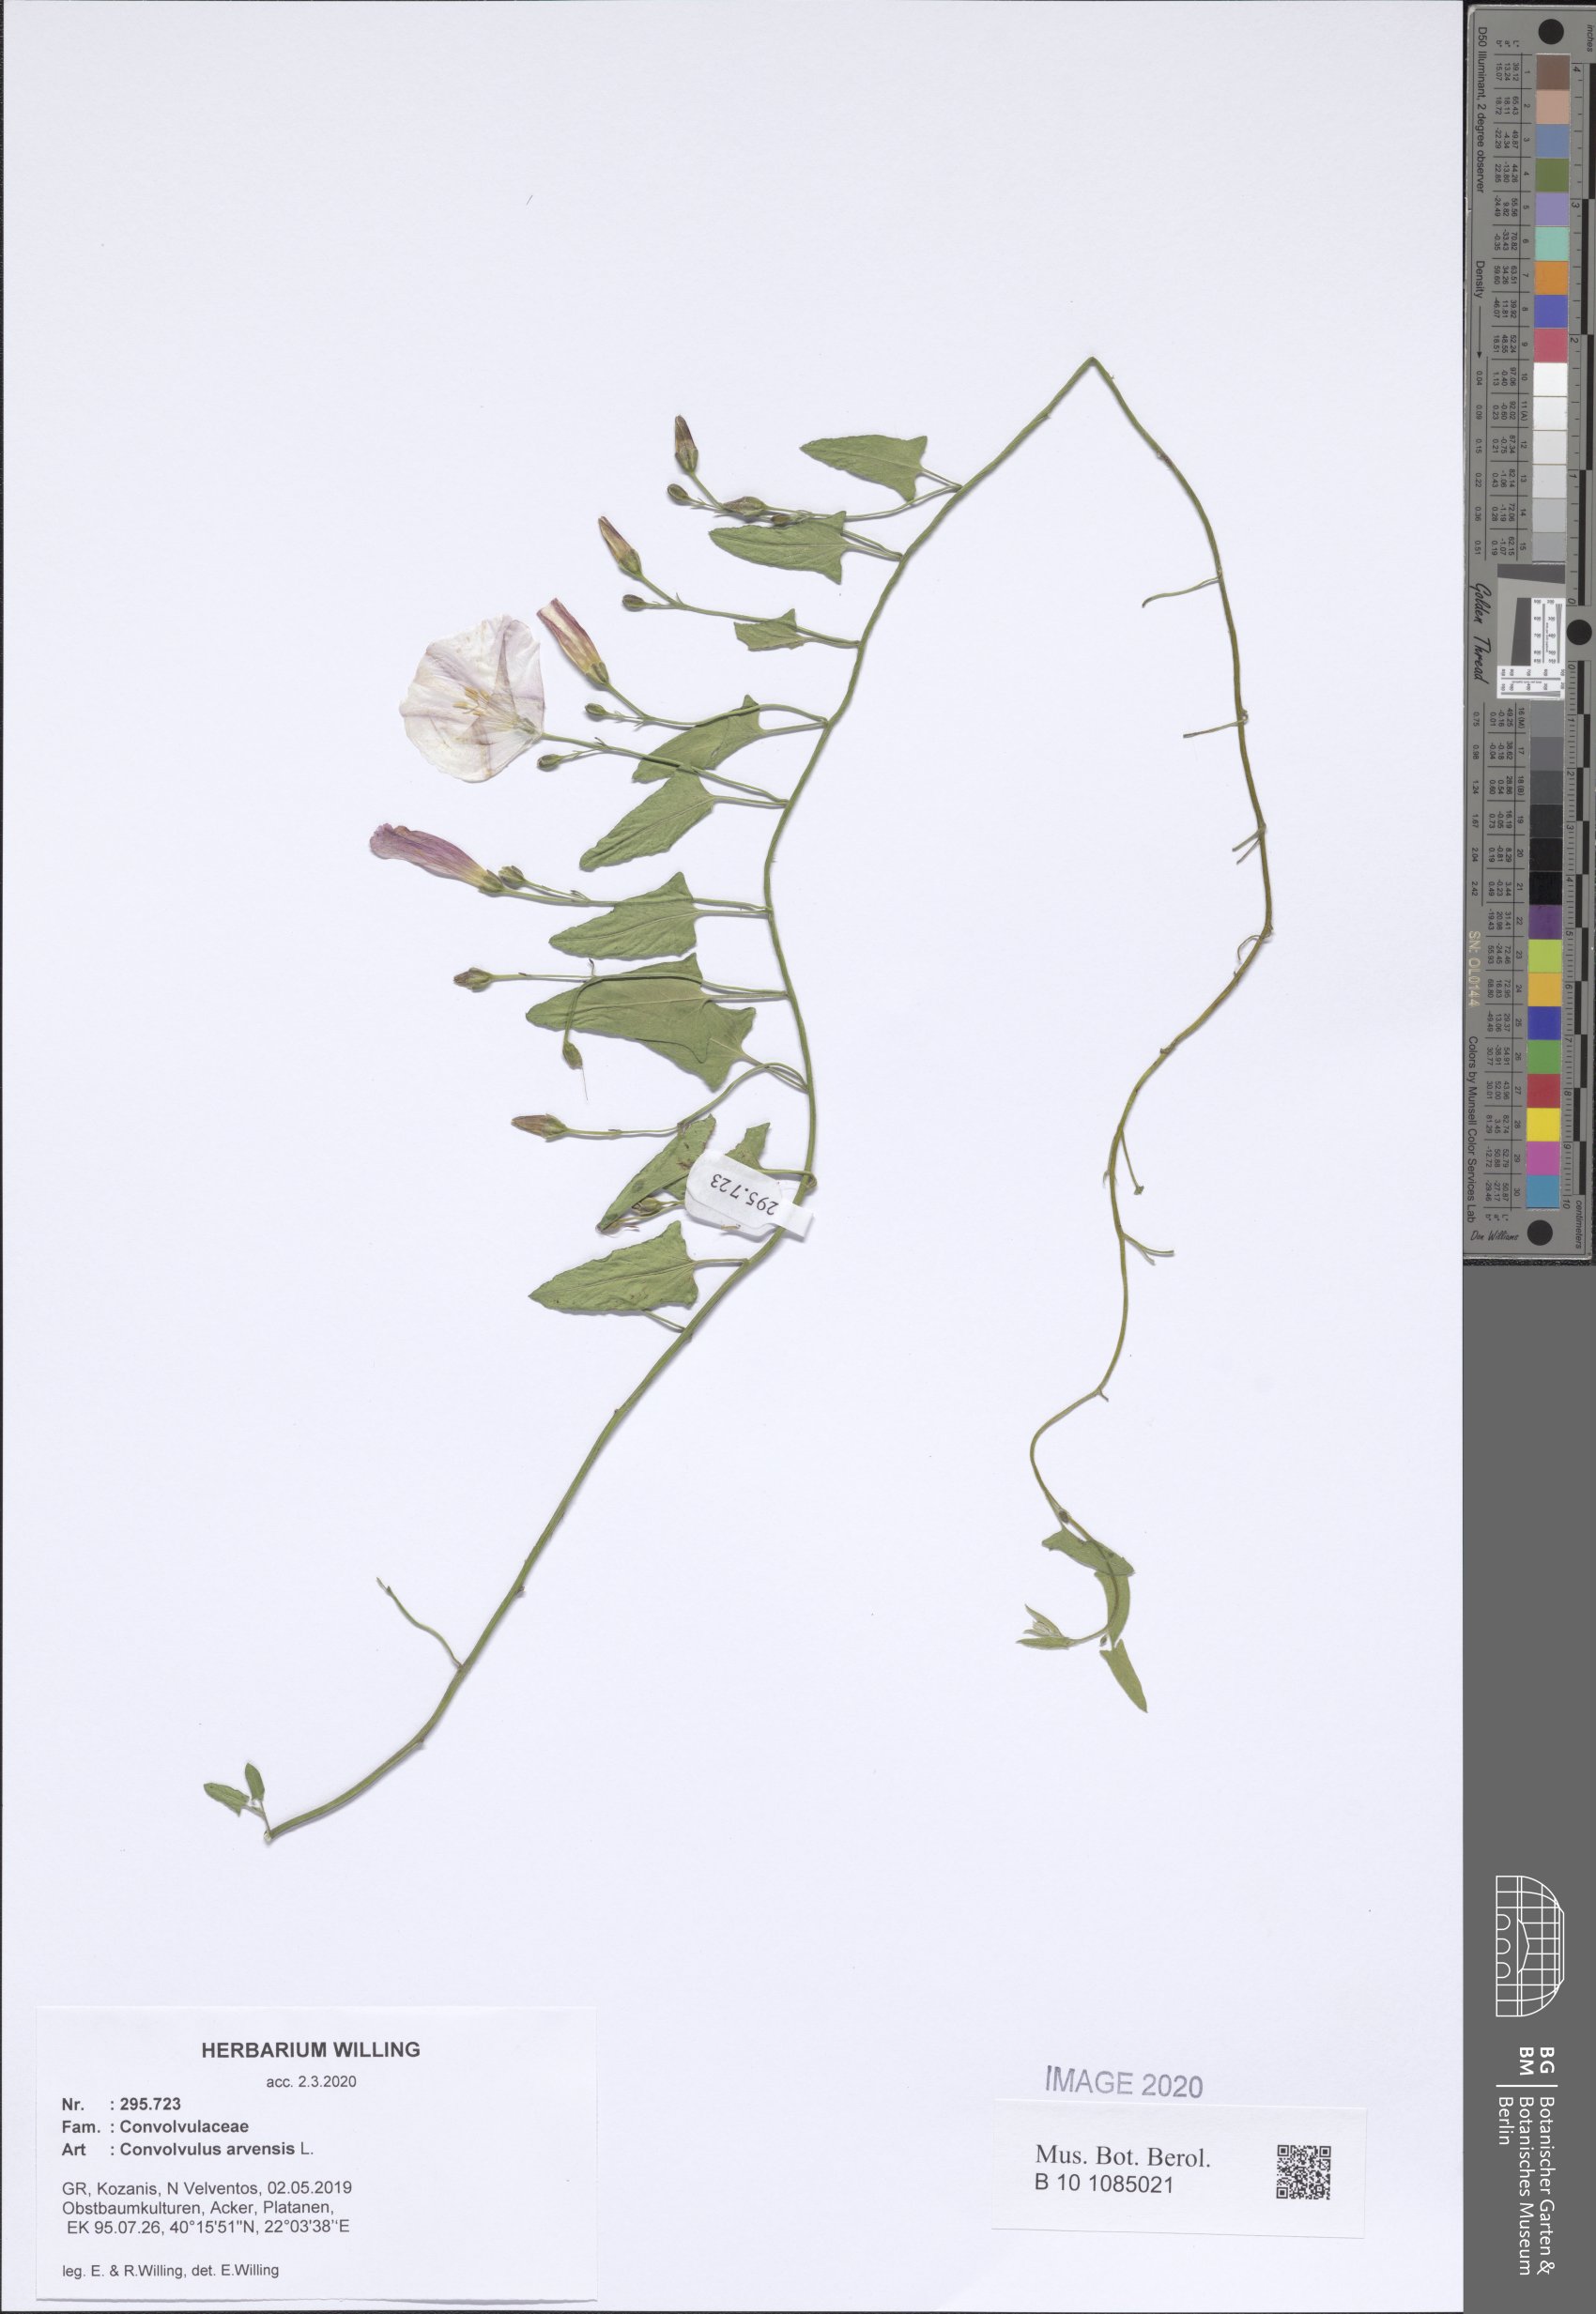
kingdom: Plantae
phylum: Tracheophyta
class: Magnoliopsida
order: Solanales
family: Convolvulaceae
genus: Convolvulus
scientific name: Convolvulus arvensis
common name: Field bindweed
